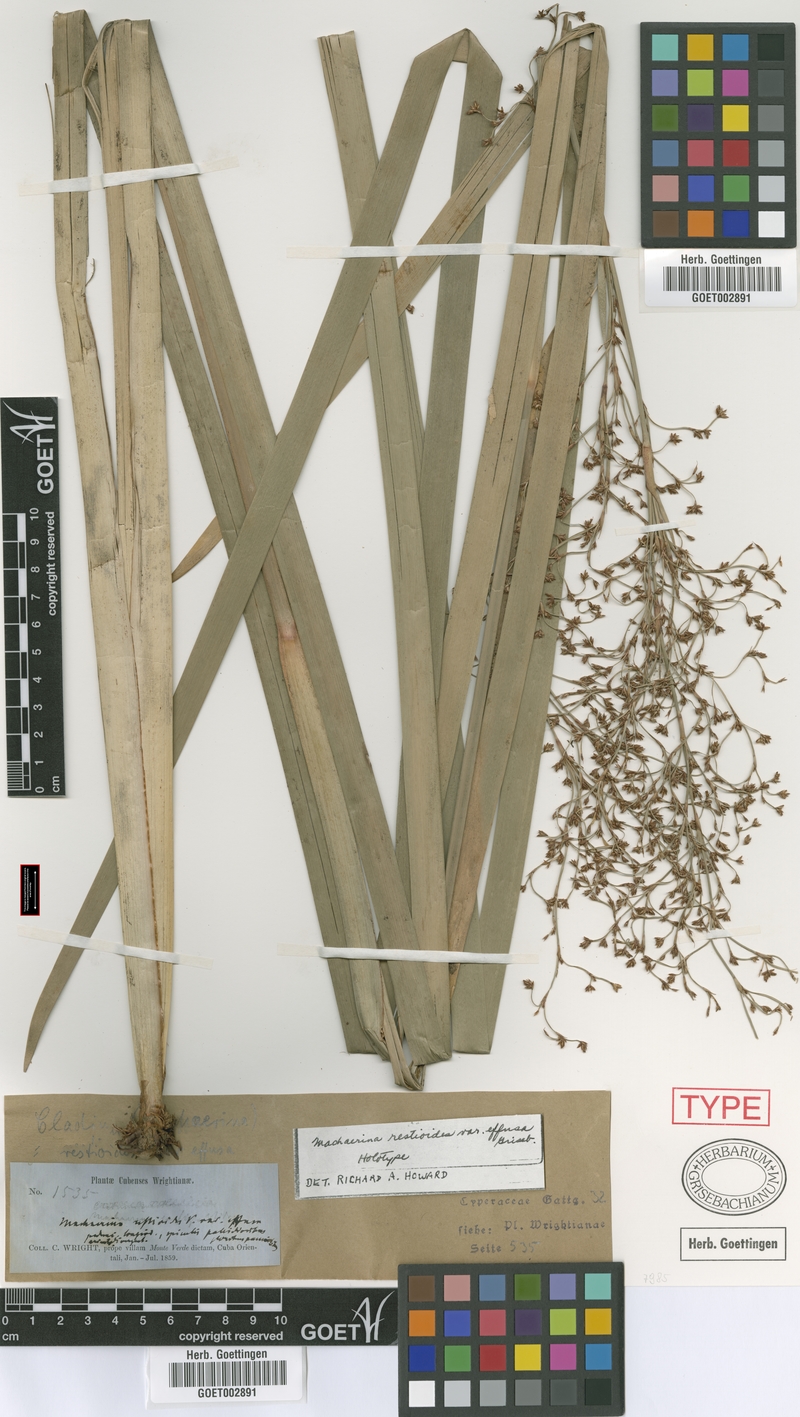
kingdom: Plantae
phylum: Tracheophyta
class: Liliopsida
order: Poales
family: Cyperaceae
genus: Machaerina
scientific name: Machaerina restioides
